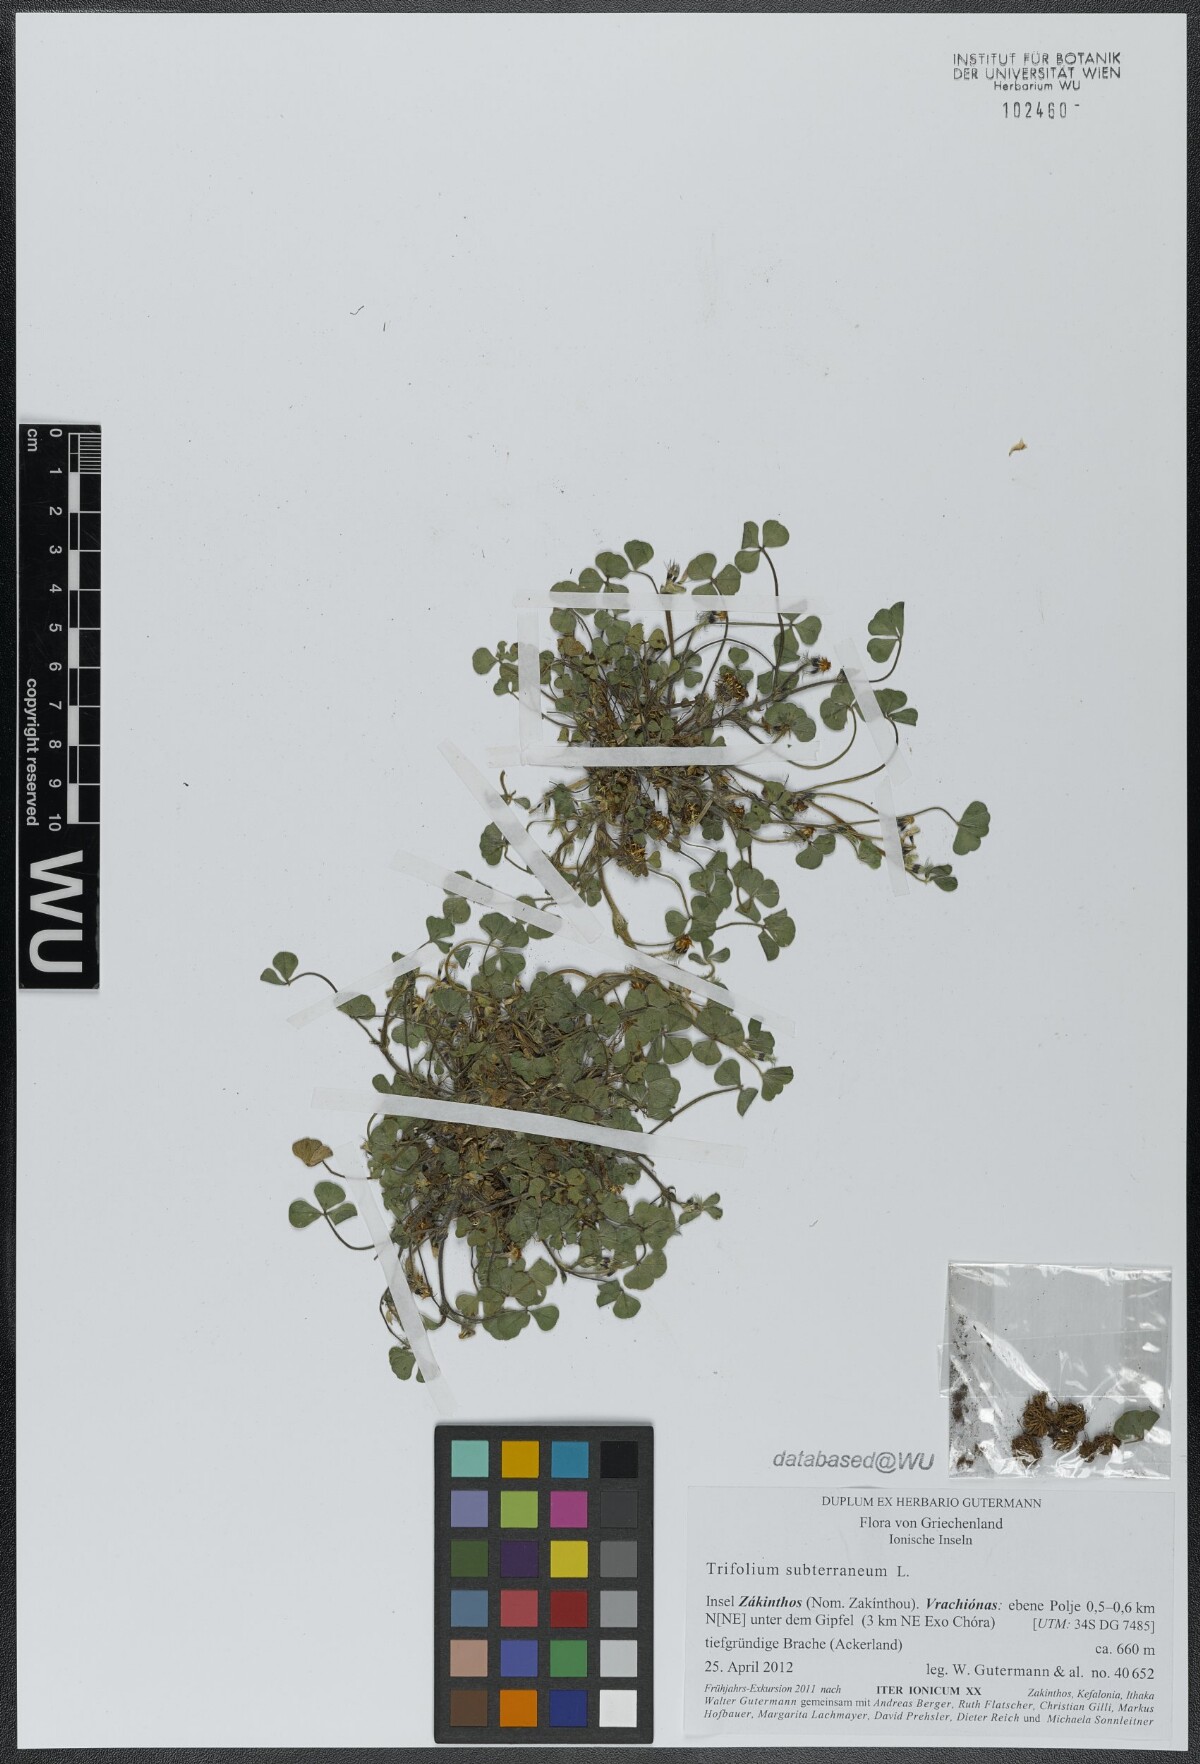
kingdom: Plantae
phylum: Tracheophyta
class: Magnoliopsida
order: Fabales
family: Fabaceae
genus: Trifolium
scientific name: Trifolium subterraneum
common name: Subterranean clover
